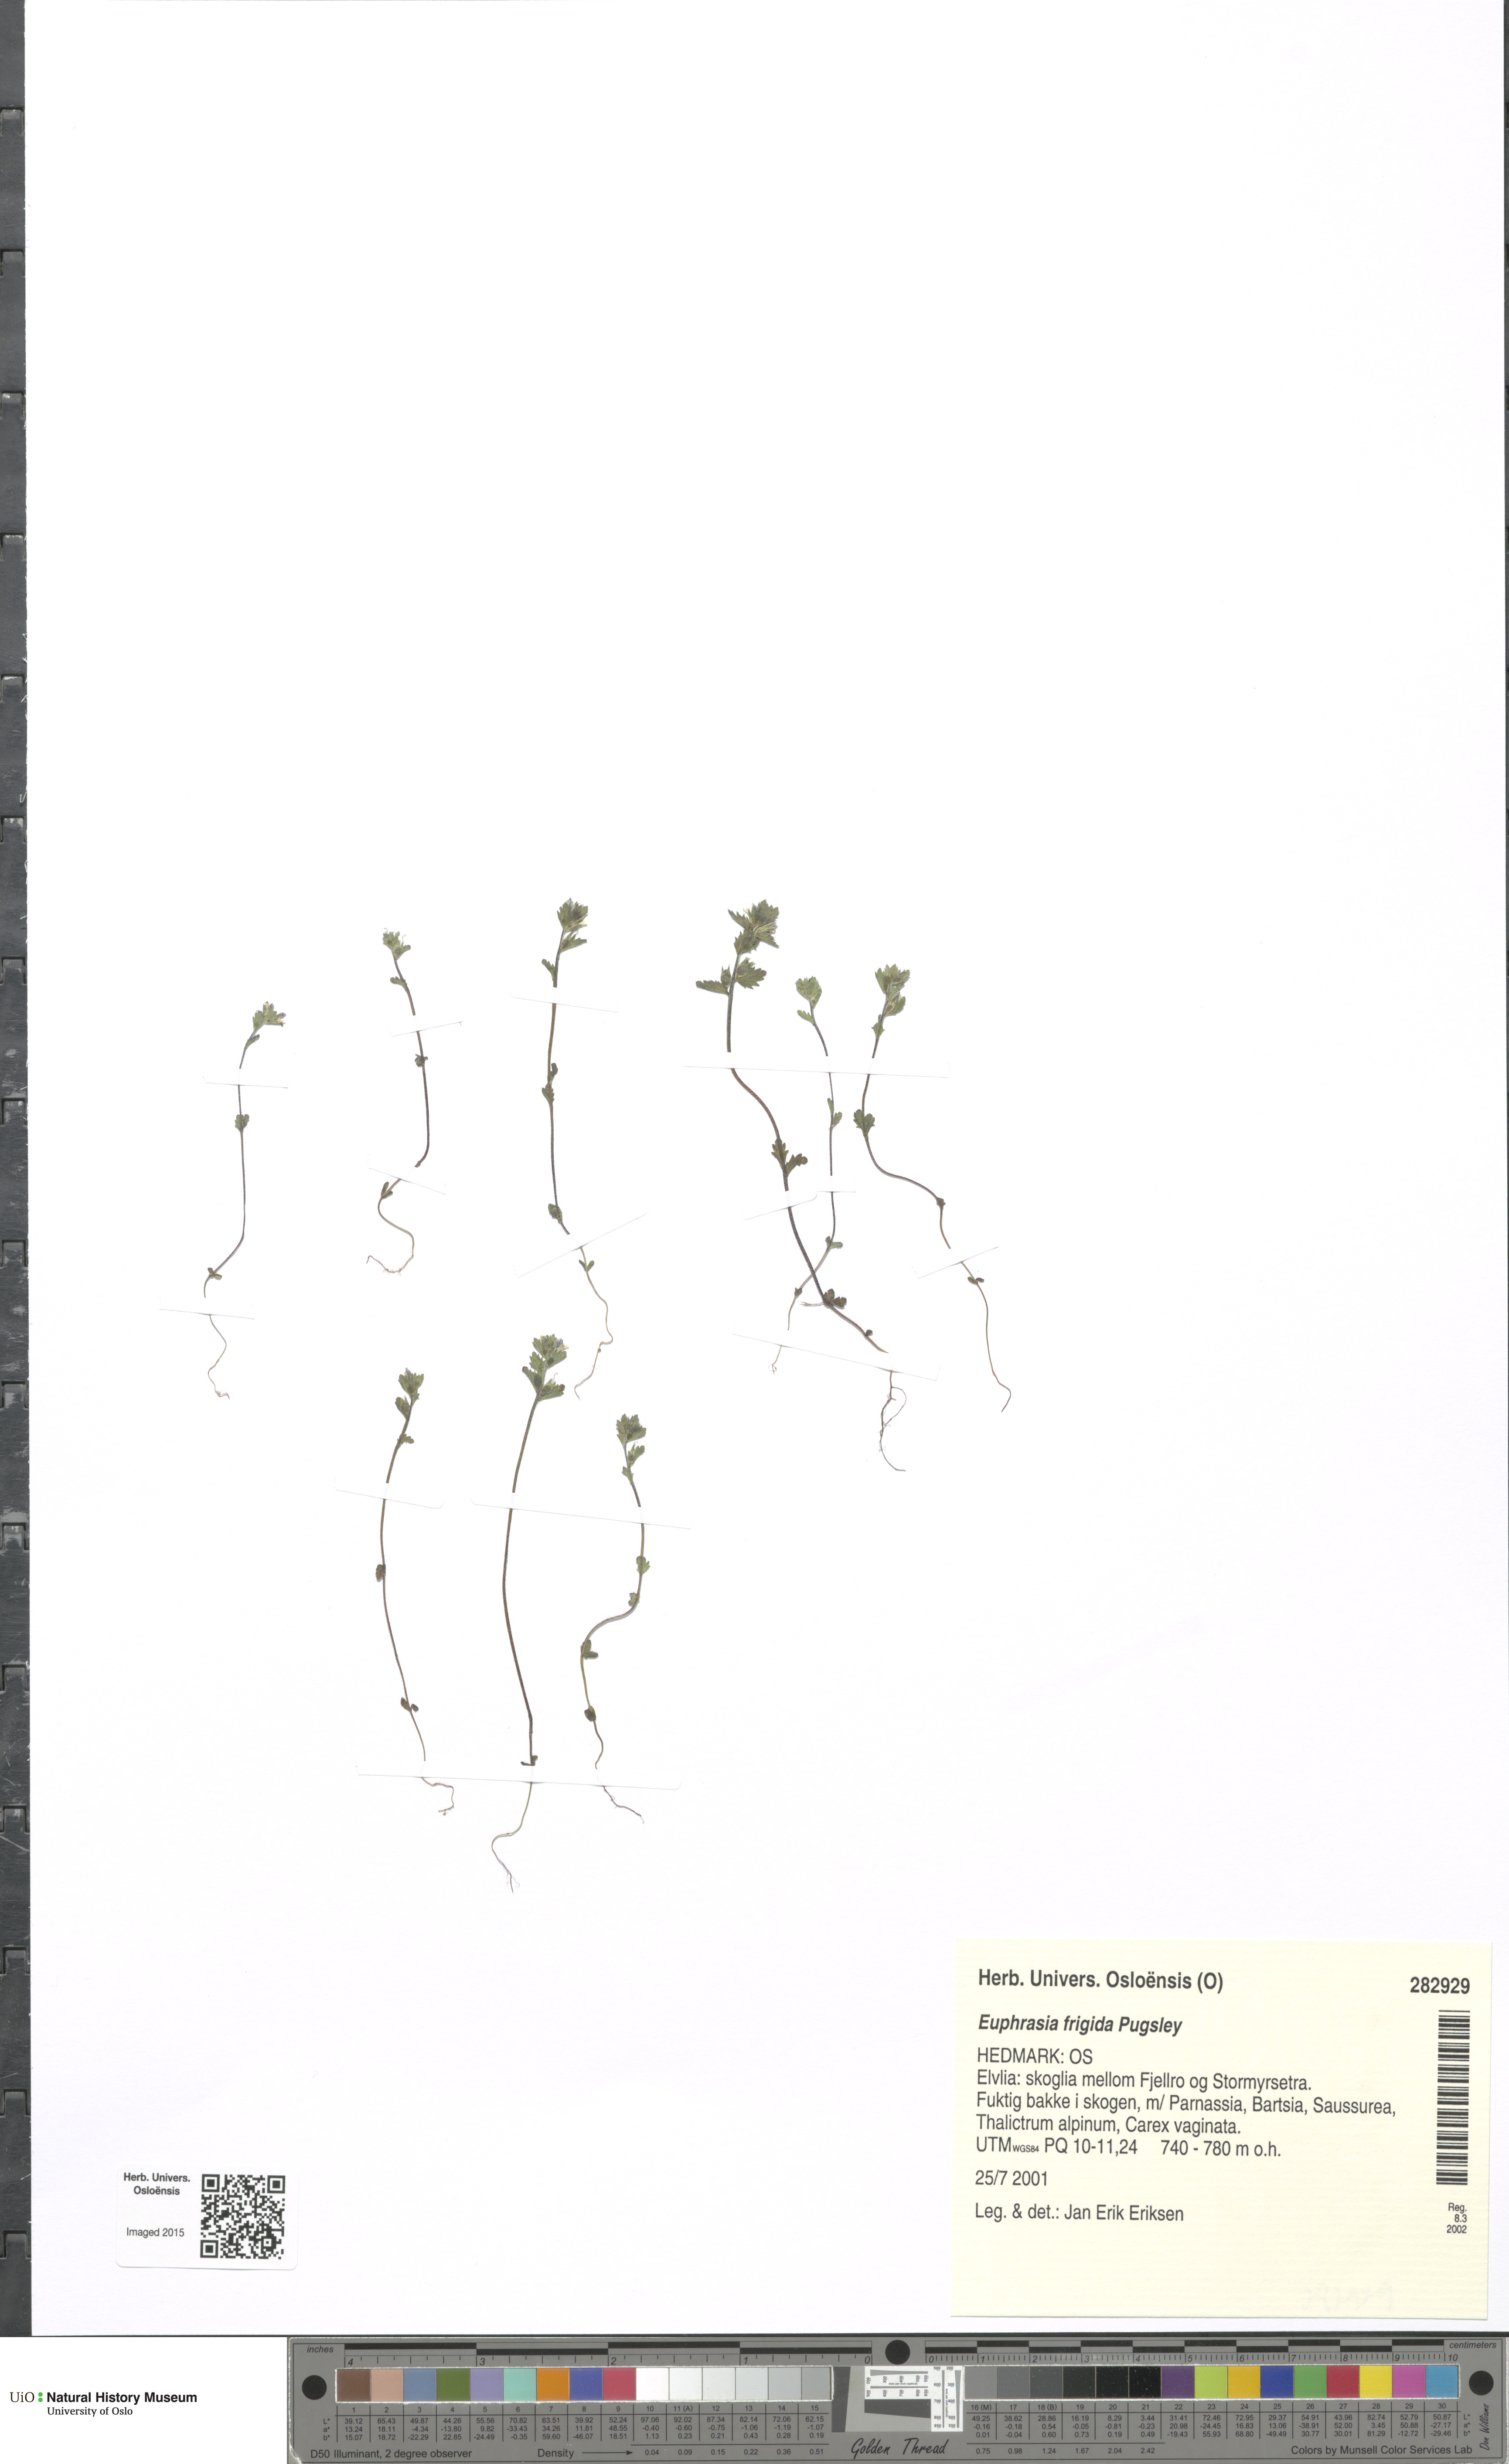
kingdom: Plantae
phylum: Tracheophyta
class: Magnoliopsida
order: Lamiales
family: Orobanchaceae
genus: Euphrasia
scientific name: Euphrasia frigida
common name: An eyebright
